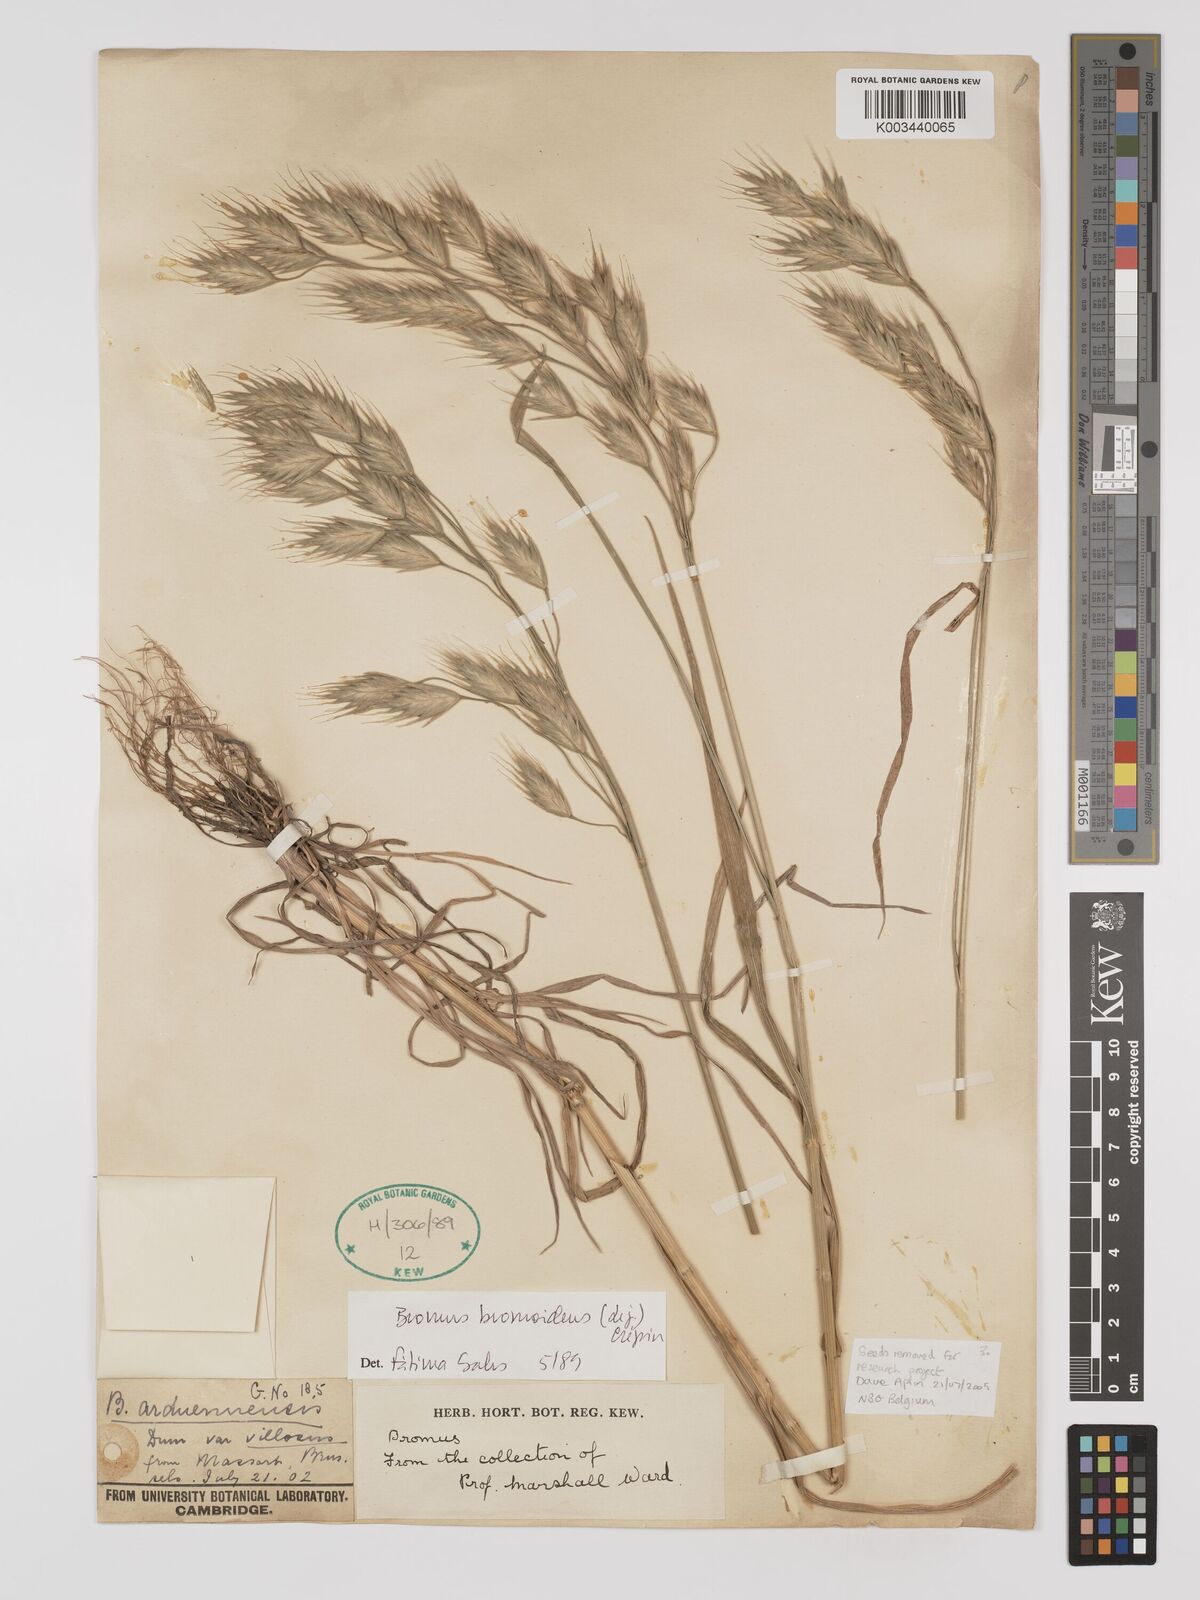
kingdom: Plantae
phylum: Tracheophyta
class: Liliopsida
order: Poales
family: Poaceae
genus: Bromus
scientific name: Bromus bromoideus
